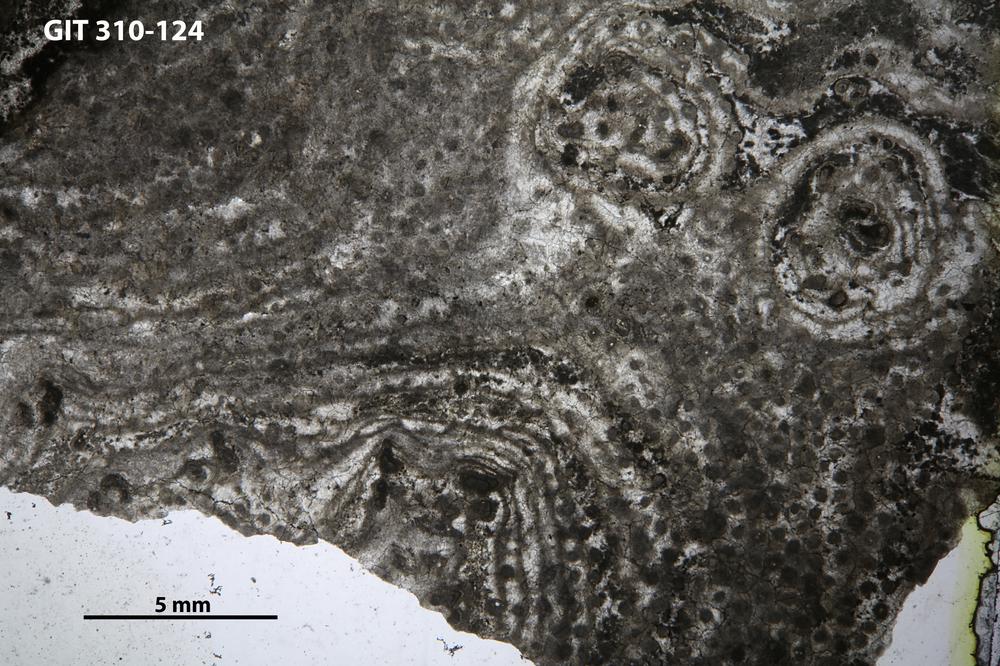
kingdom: Animalia
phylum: Porifera
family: Labechiidae
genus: Labechia
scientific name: Labechia
